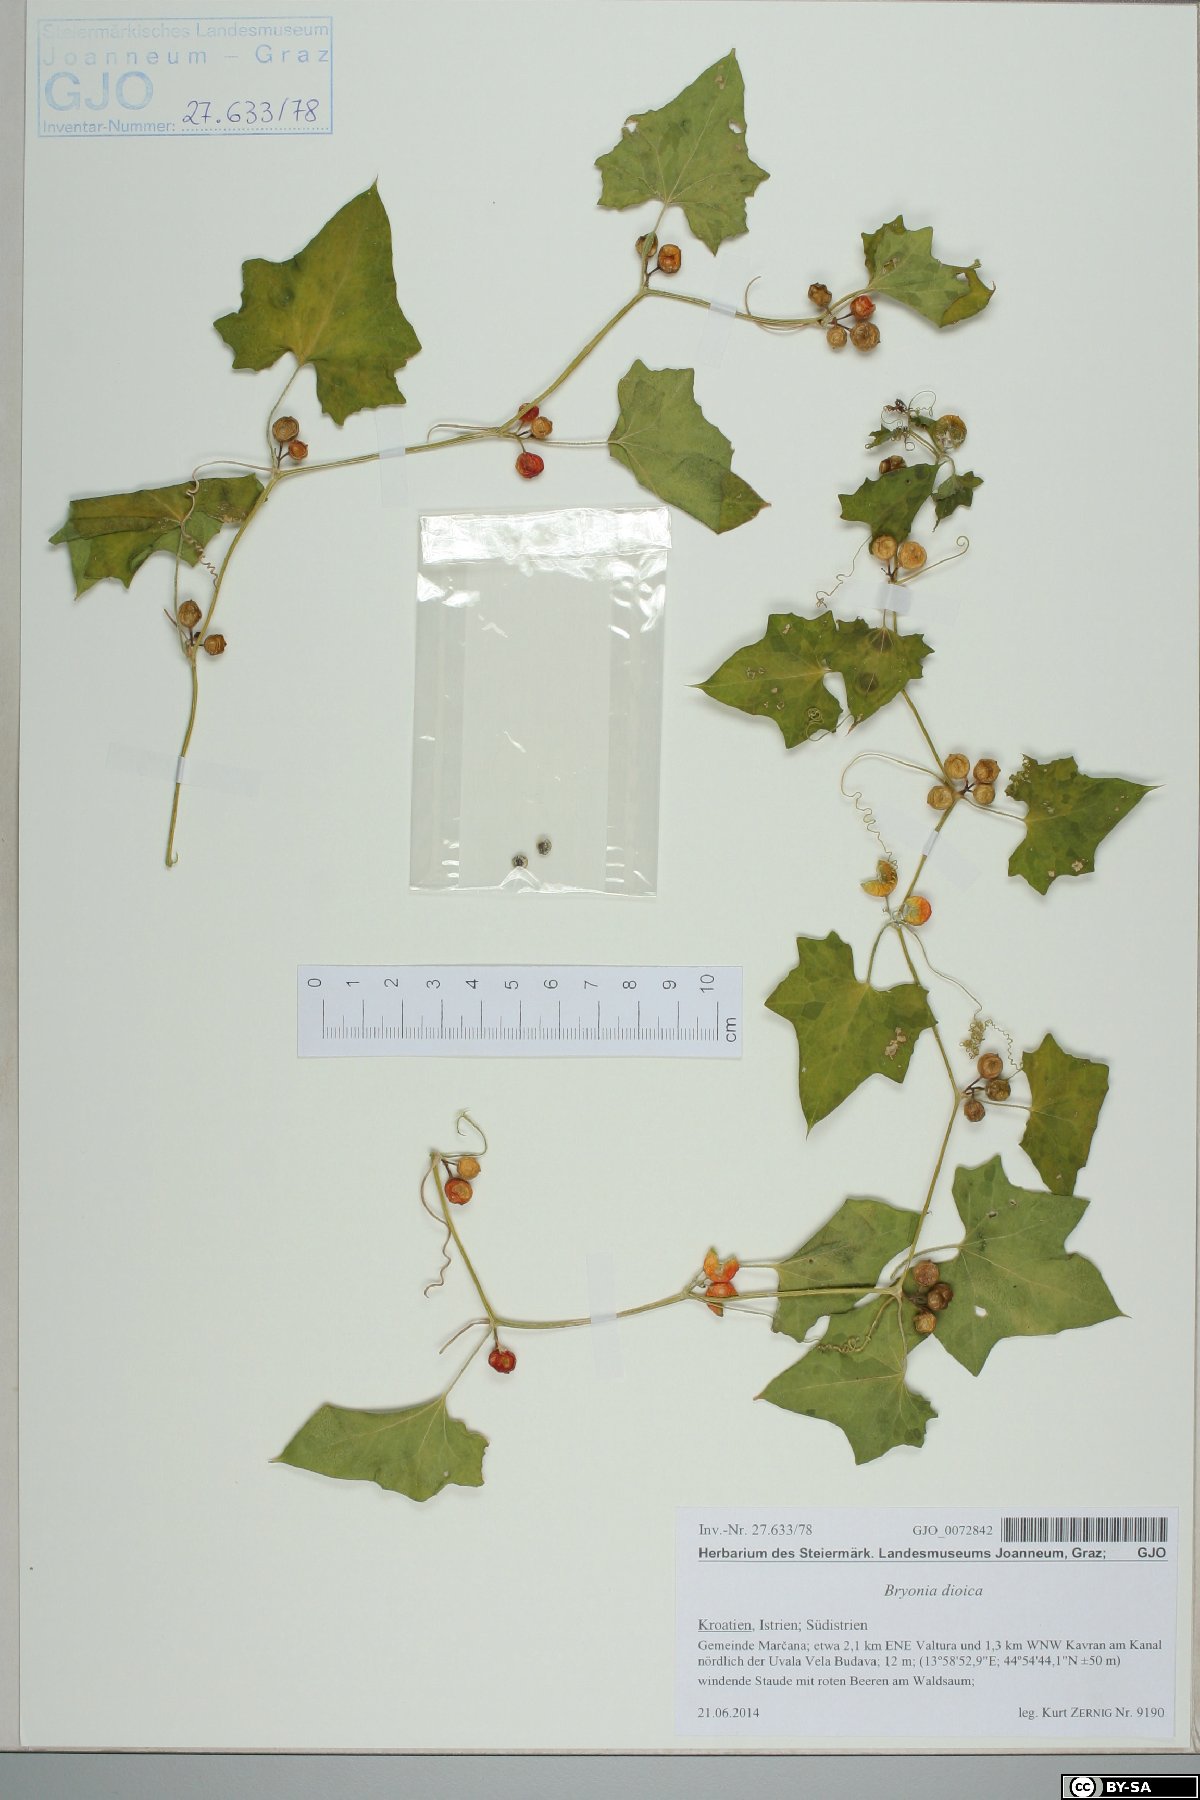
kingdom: Plantae
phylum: Tracheophyta
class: Magnoliopsida
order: Cucurbitales
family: Cucurbitaceae
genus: Bryonia
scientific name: Bryonia dioica
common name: White bryony
